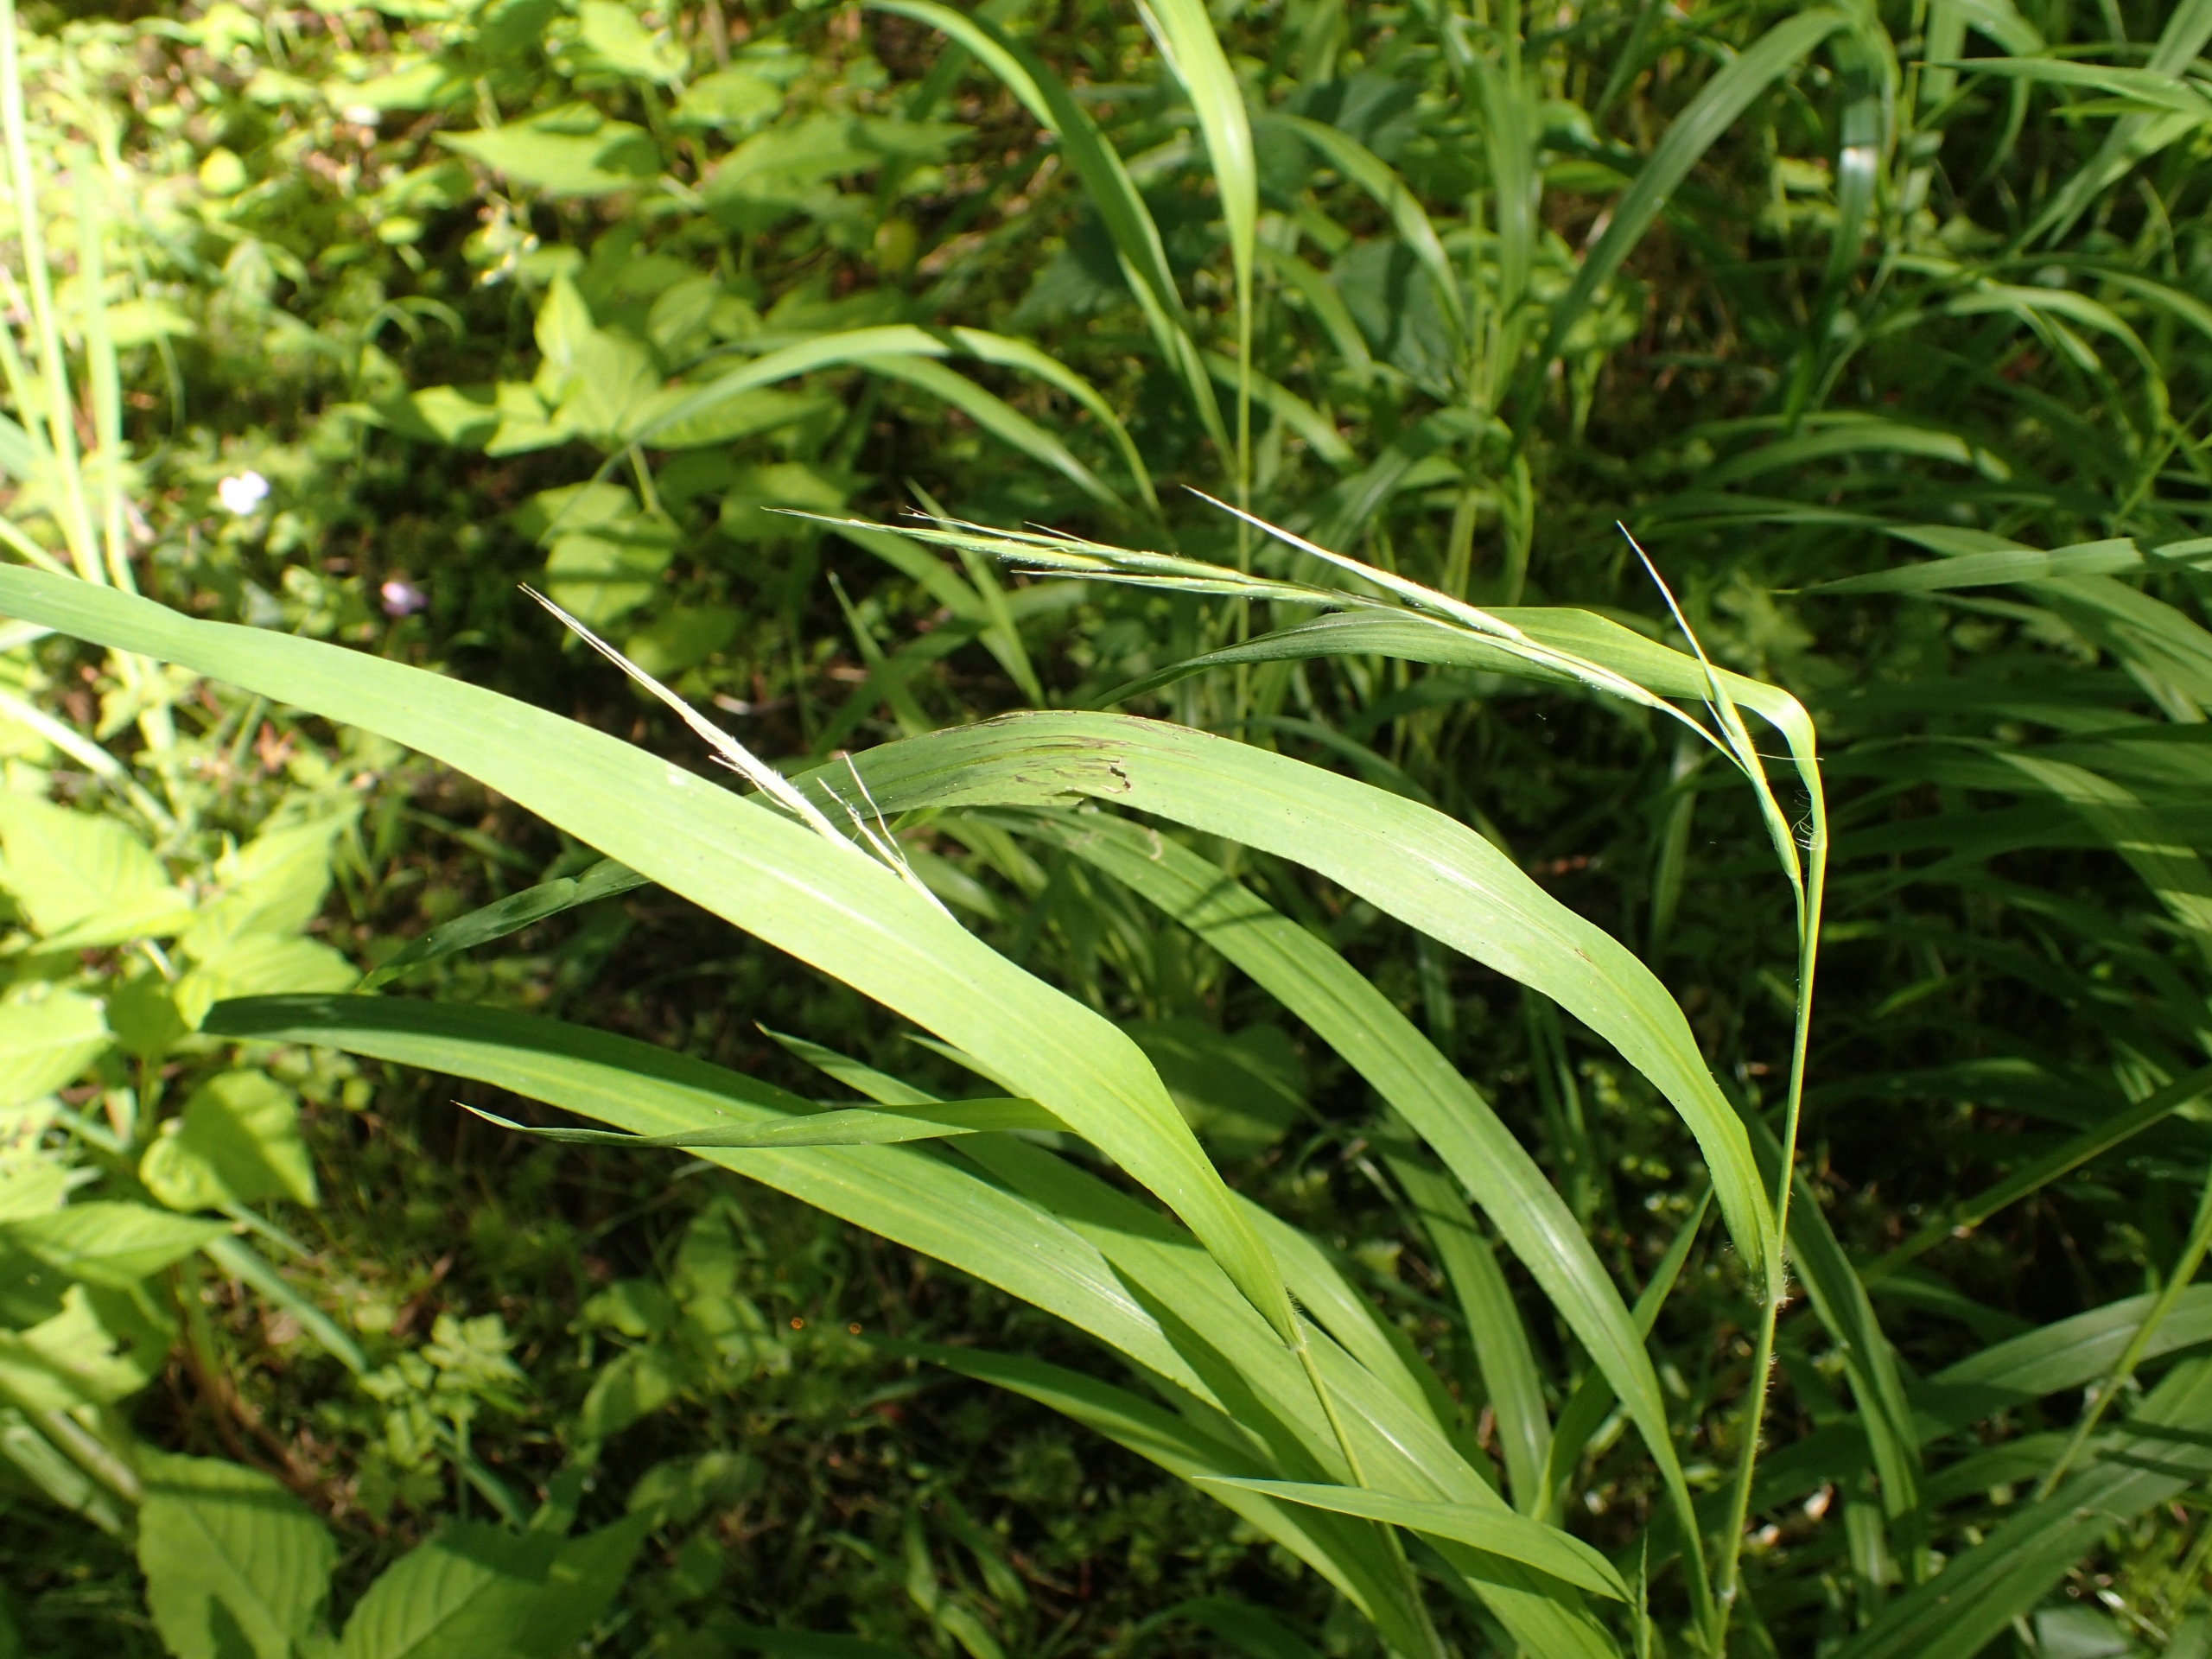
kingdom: Plantae
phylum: Tracheophyta
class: Liliopsida
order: Poales
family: Poaceae
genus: Brachypodium
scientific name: Brachypodium sylvaticum
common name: Skov-stilkaks
